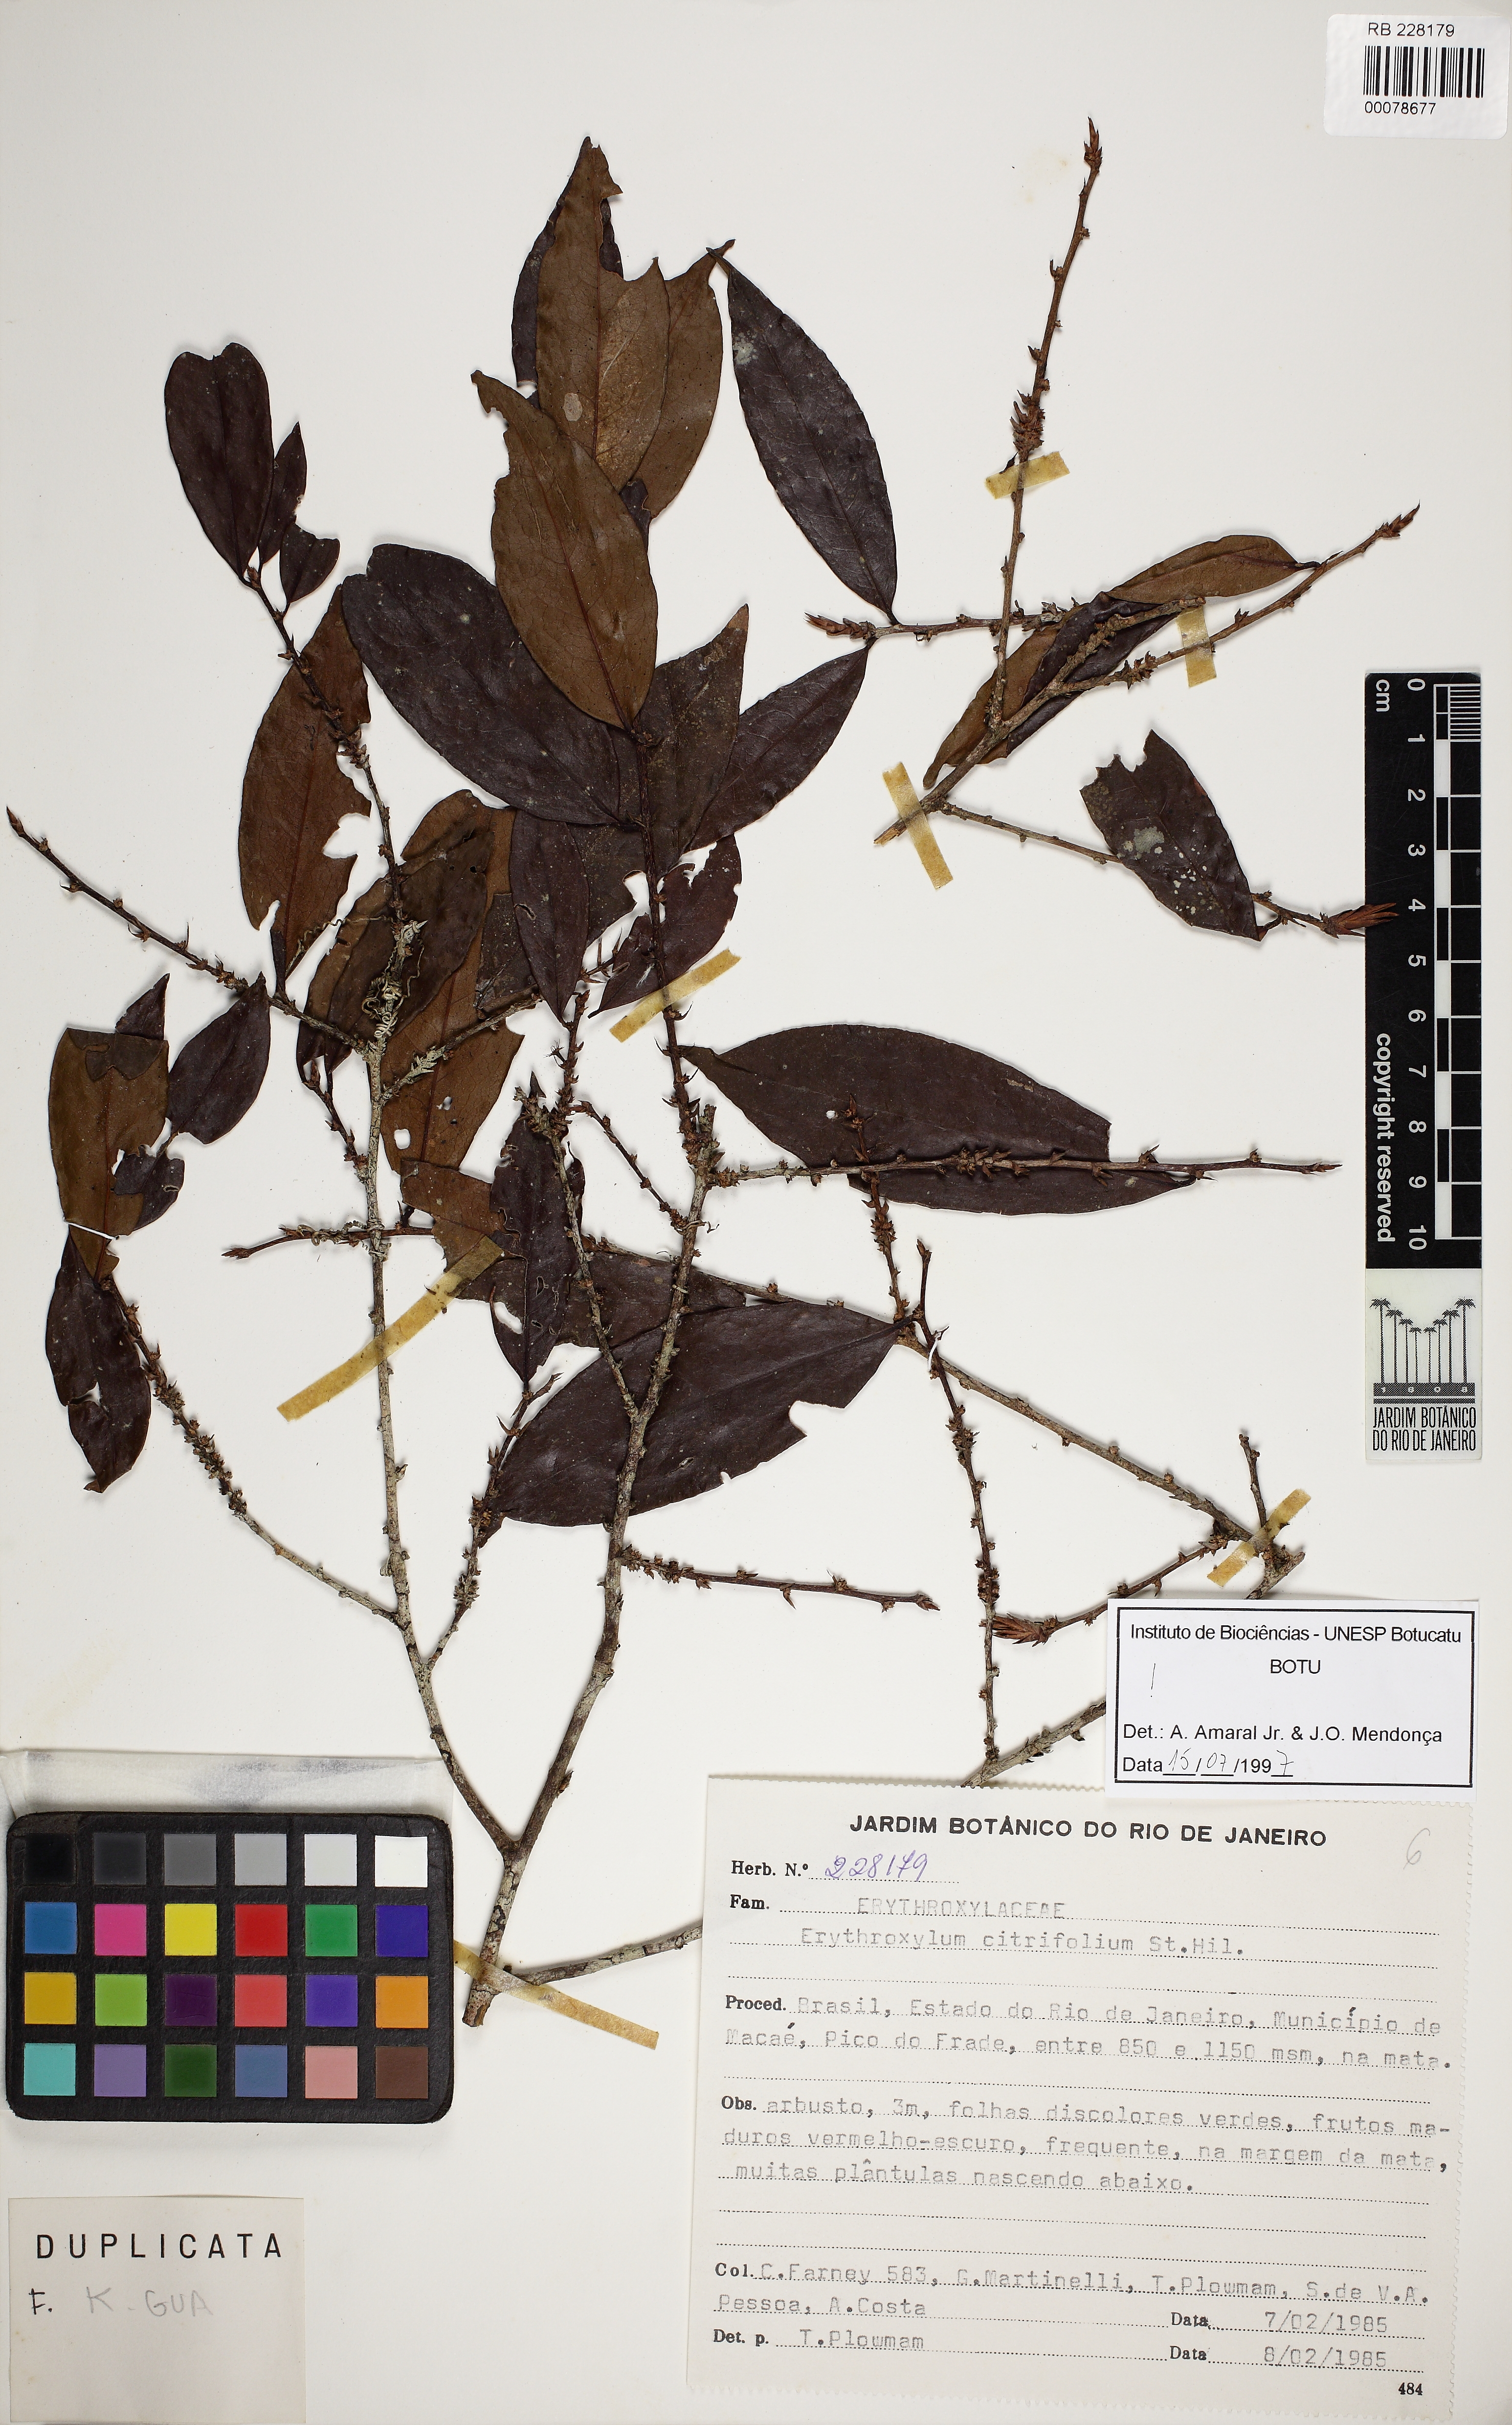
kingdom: Plantae
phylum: Tracheophyta
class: Magnoliopsida
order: Malpighiales
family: Erythroxylaceae
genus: Erythroxylum
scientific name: Erythroxylum citrifolium
